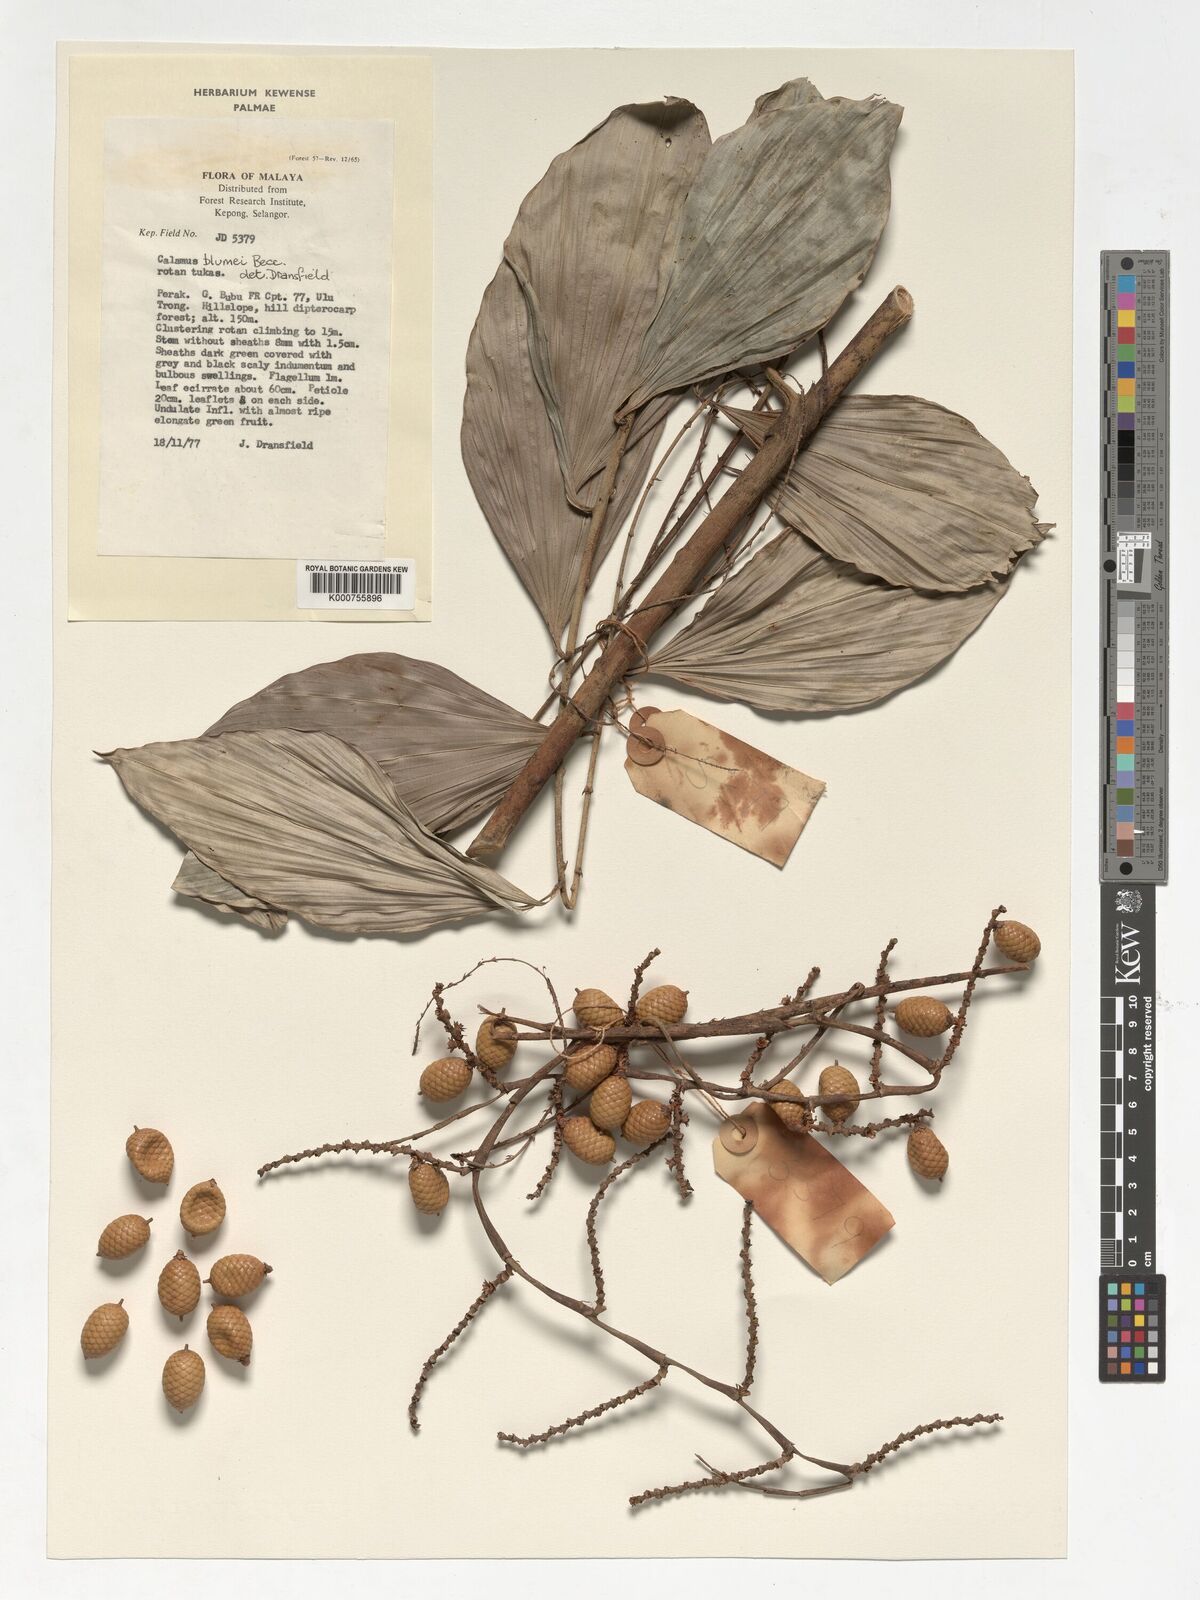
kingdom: Plantae
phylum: Tracheophyta
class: Liliopsida
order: Arecales
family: Arecaceae
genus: Calamus
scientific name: Calamus rhomboideus
